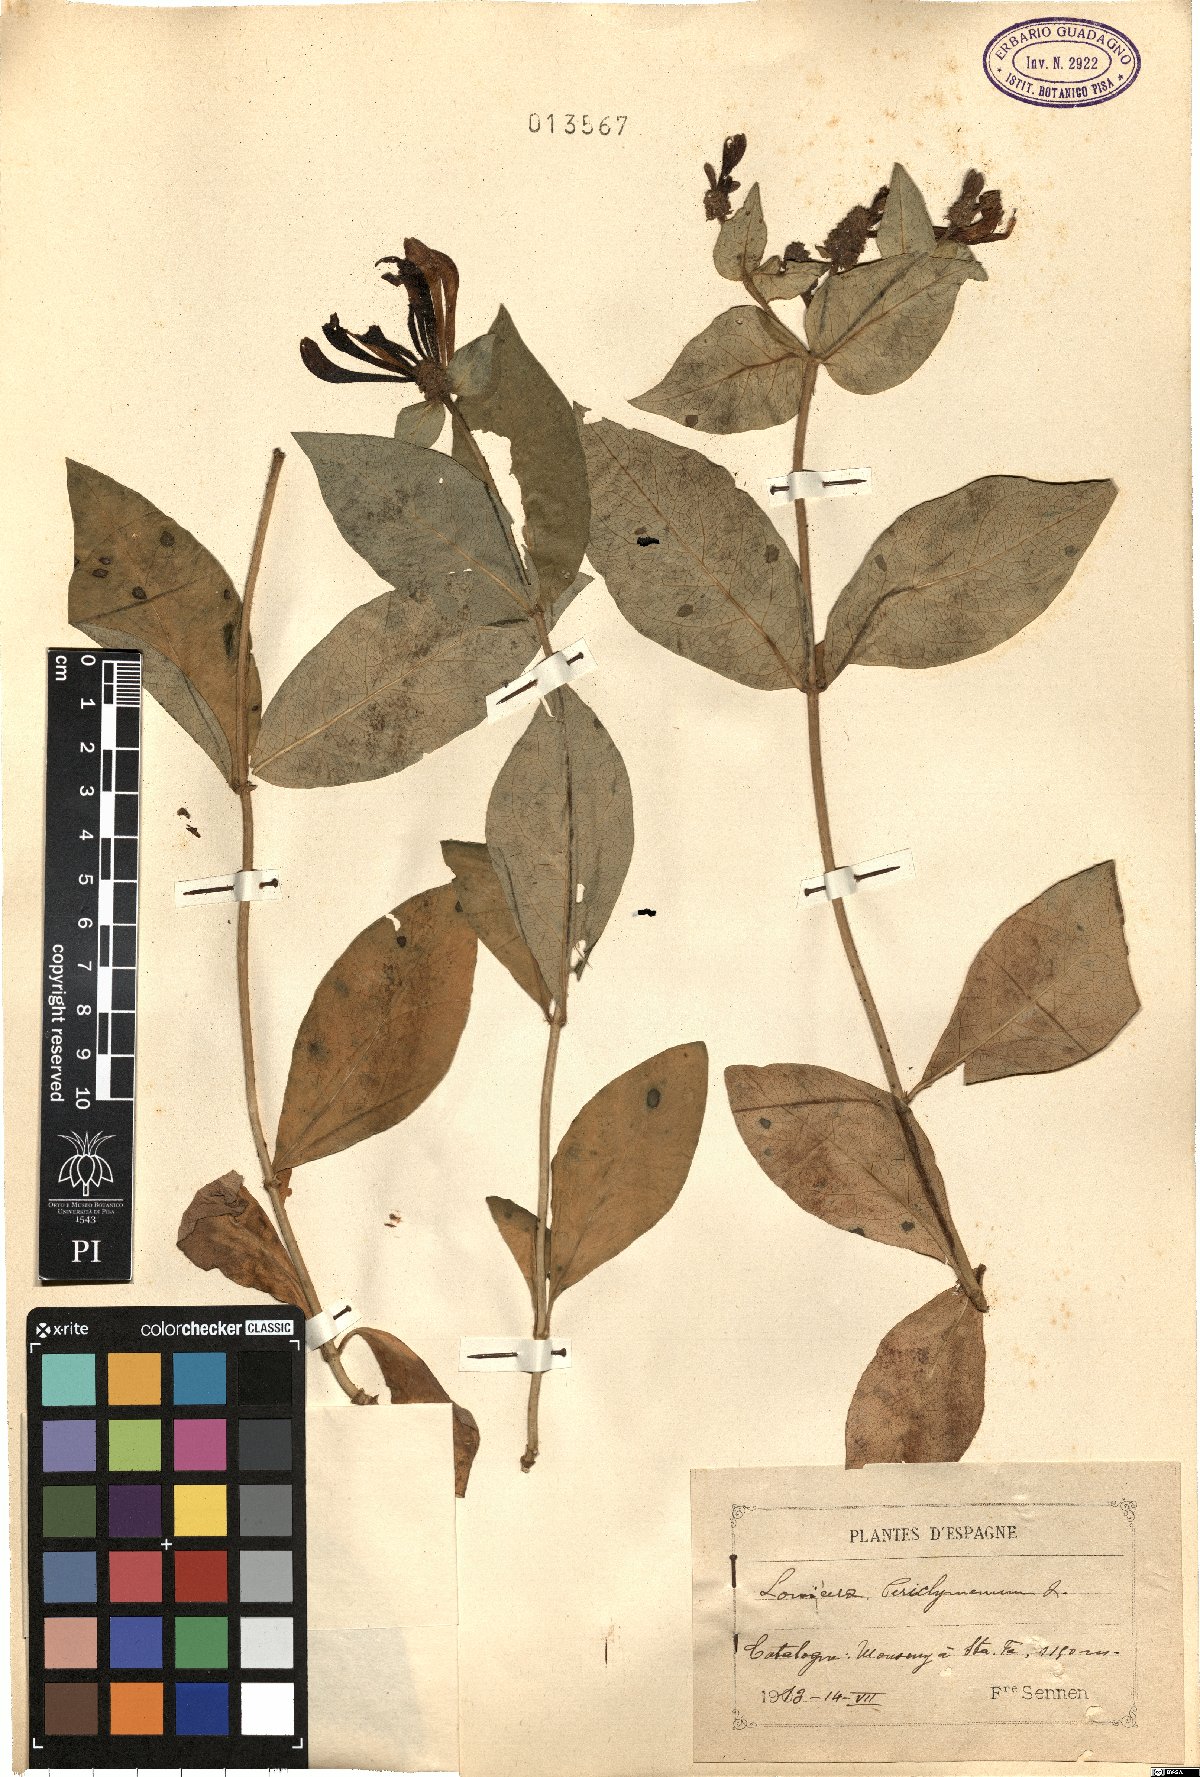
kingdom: Plantae
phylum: Tracheophyta
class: Magnoliopsida
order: Dipsacales
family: Caprifoliaceae
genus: Lonicera
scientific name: Lonicera periclymenum
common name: European honeysuckle
